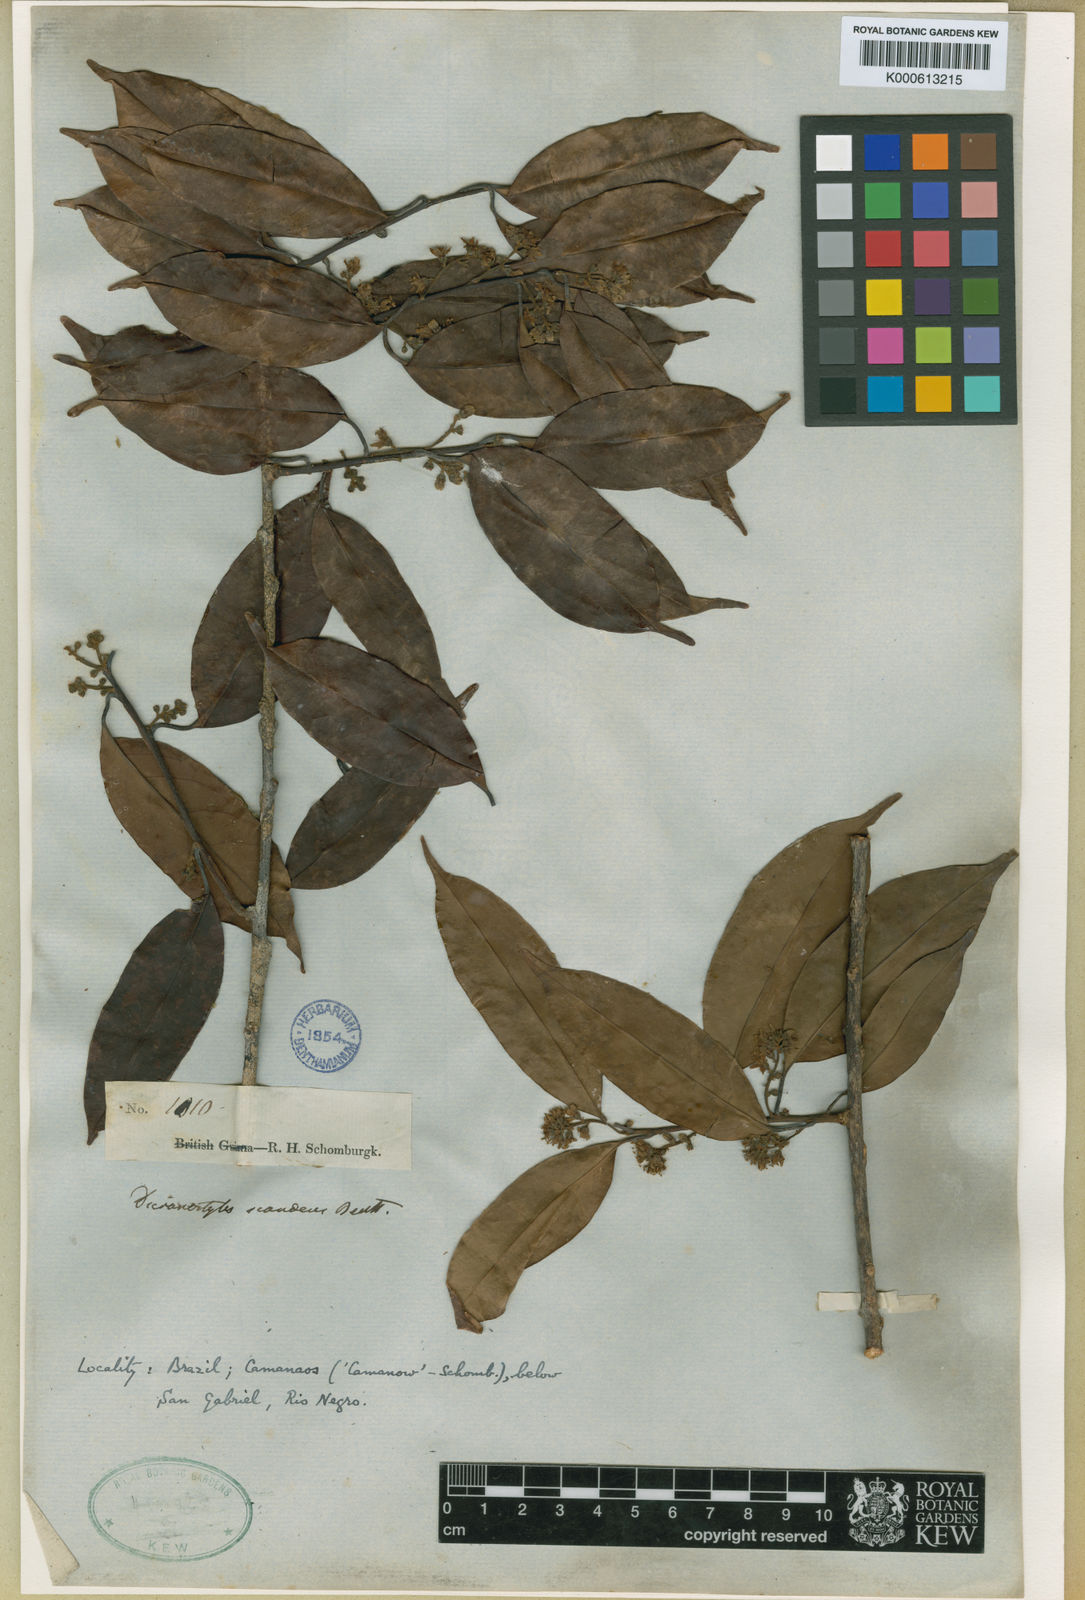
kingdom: Plantae
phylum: Tracheophyta
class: Magnoliopsida
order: Solanales
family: Convolvulaceae
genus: Dicranostyles
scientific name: Dicranostyles scandens
